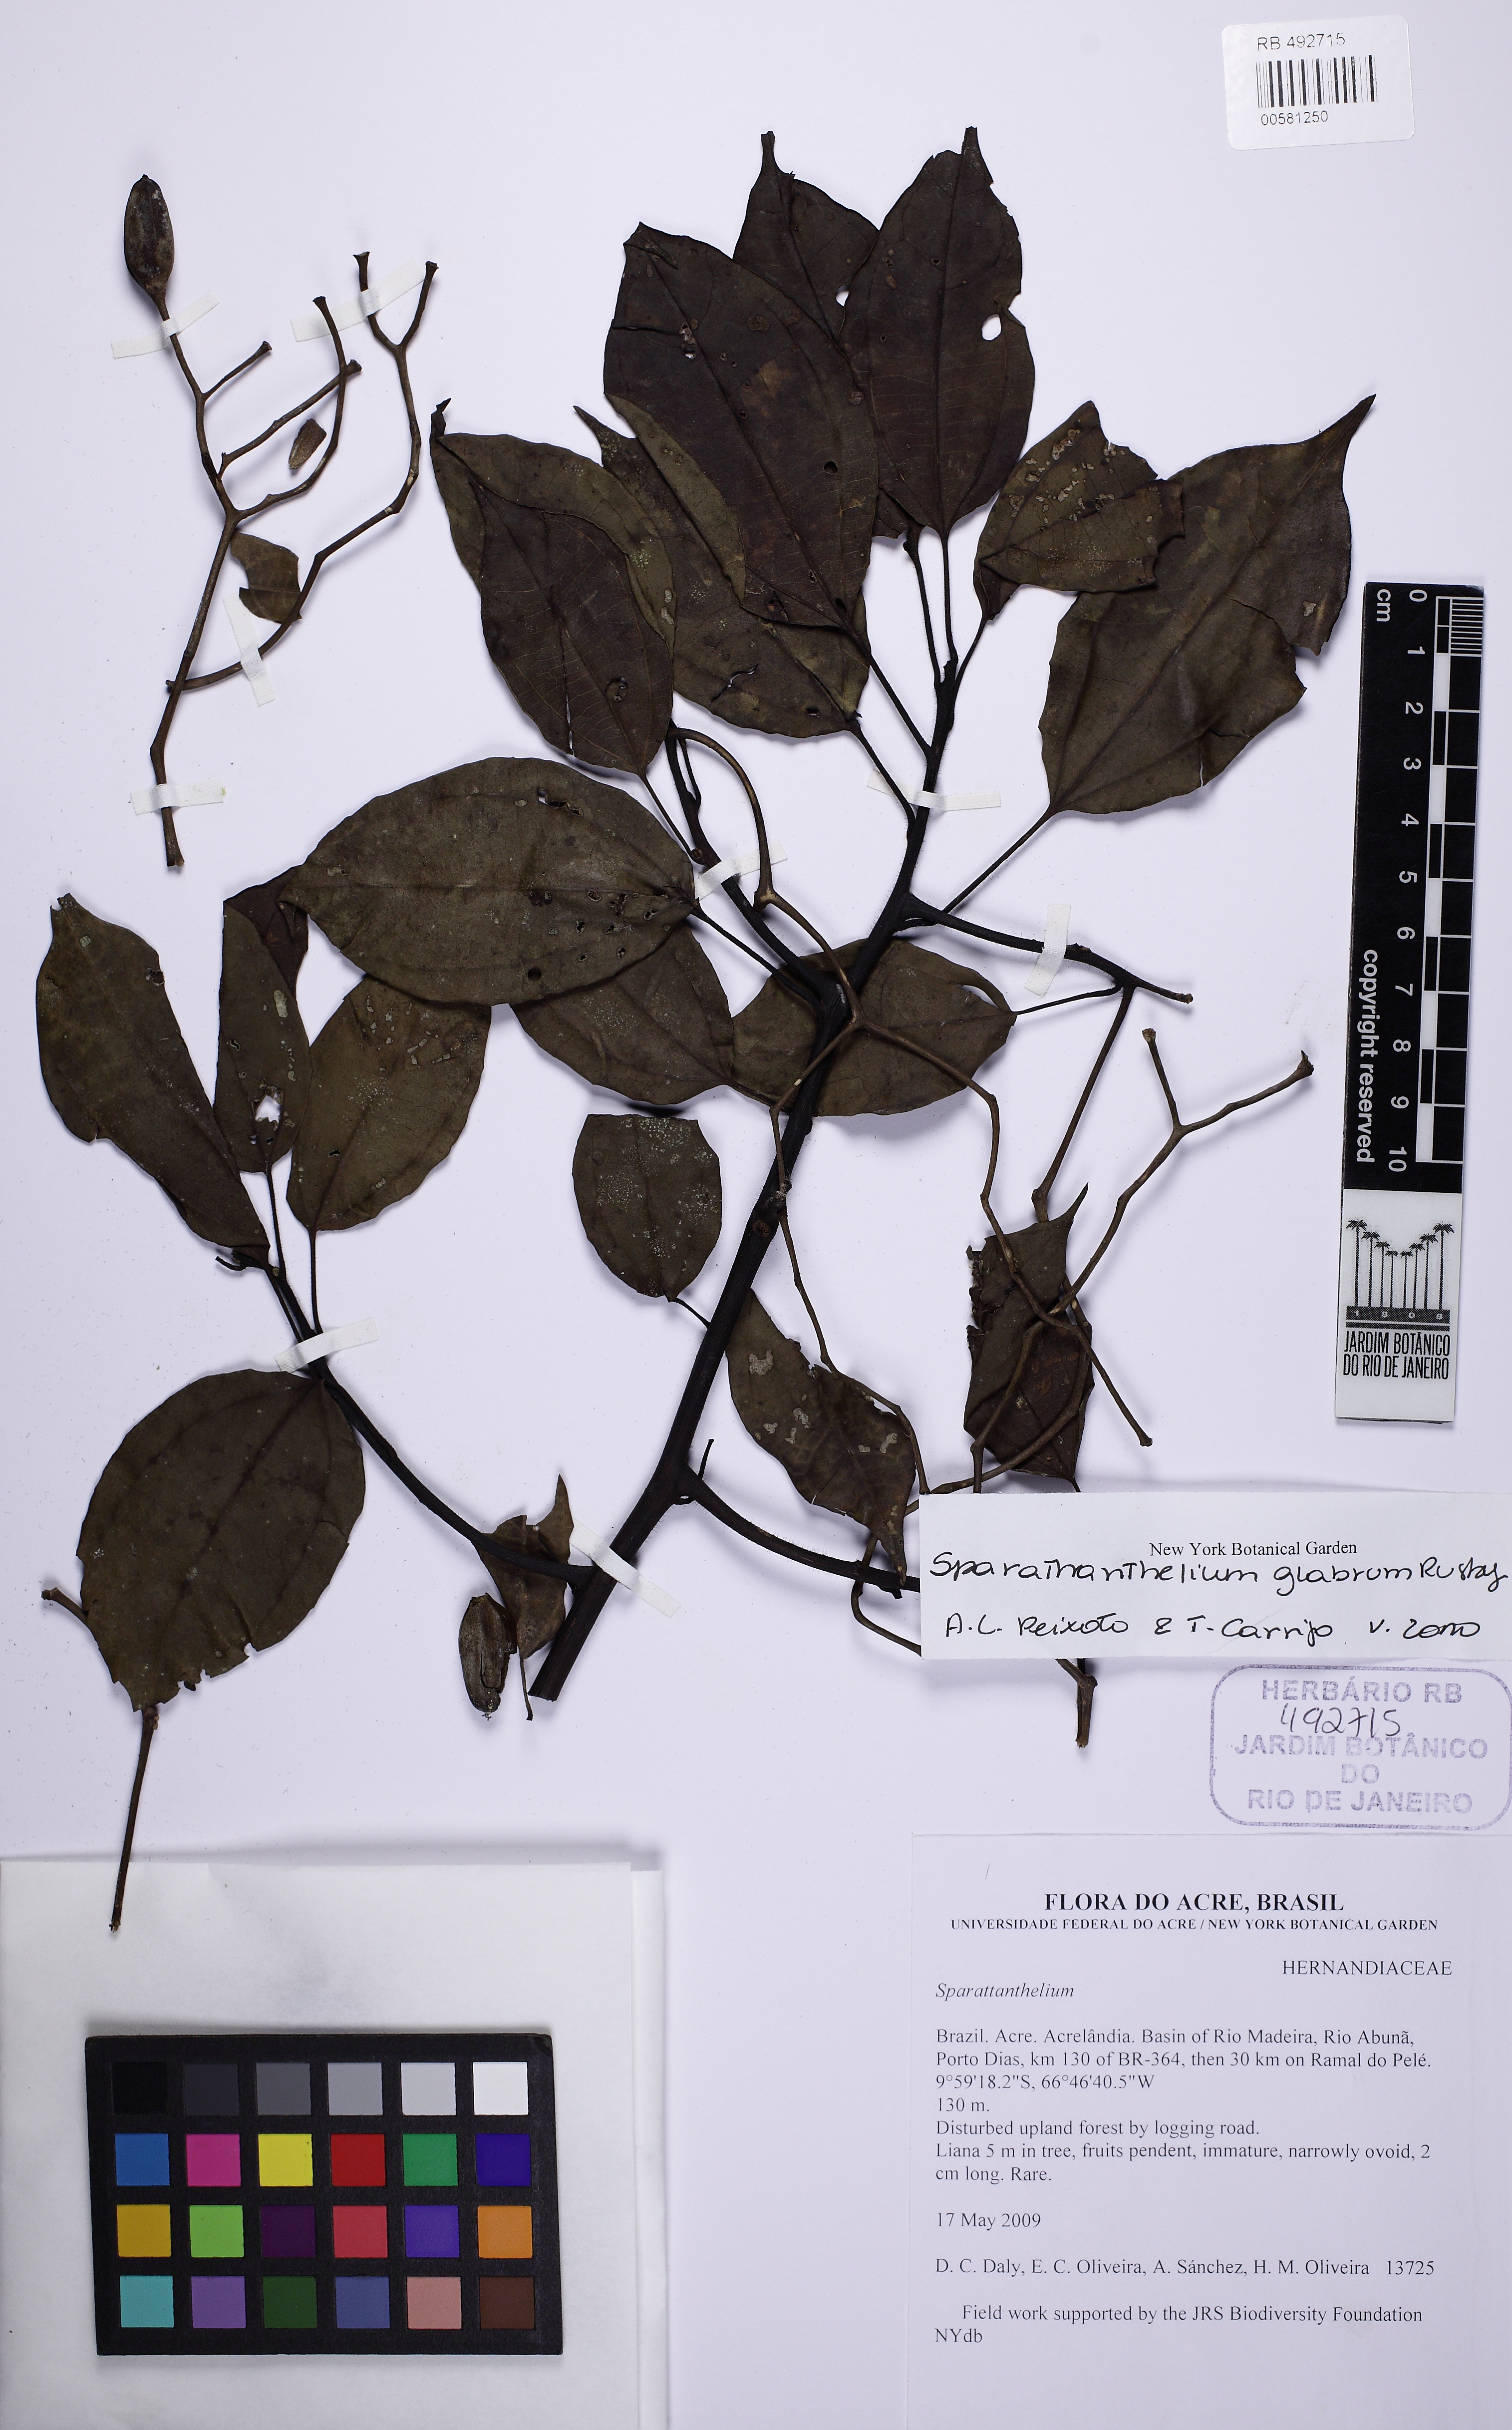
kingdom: Plantae
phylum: Tracheophyta
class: Magnoliopsida
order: Laurales
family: Hernandiaceae
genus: Sparattanthelium
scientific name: Sparattanthelium glabrum
